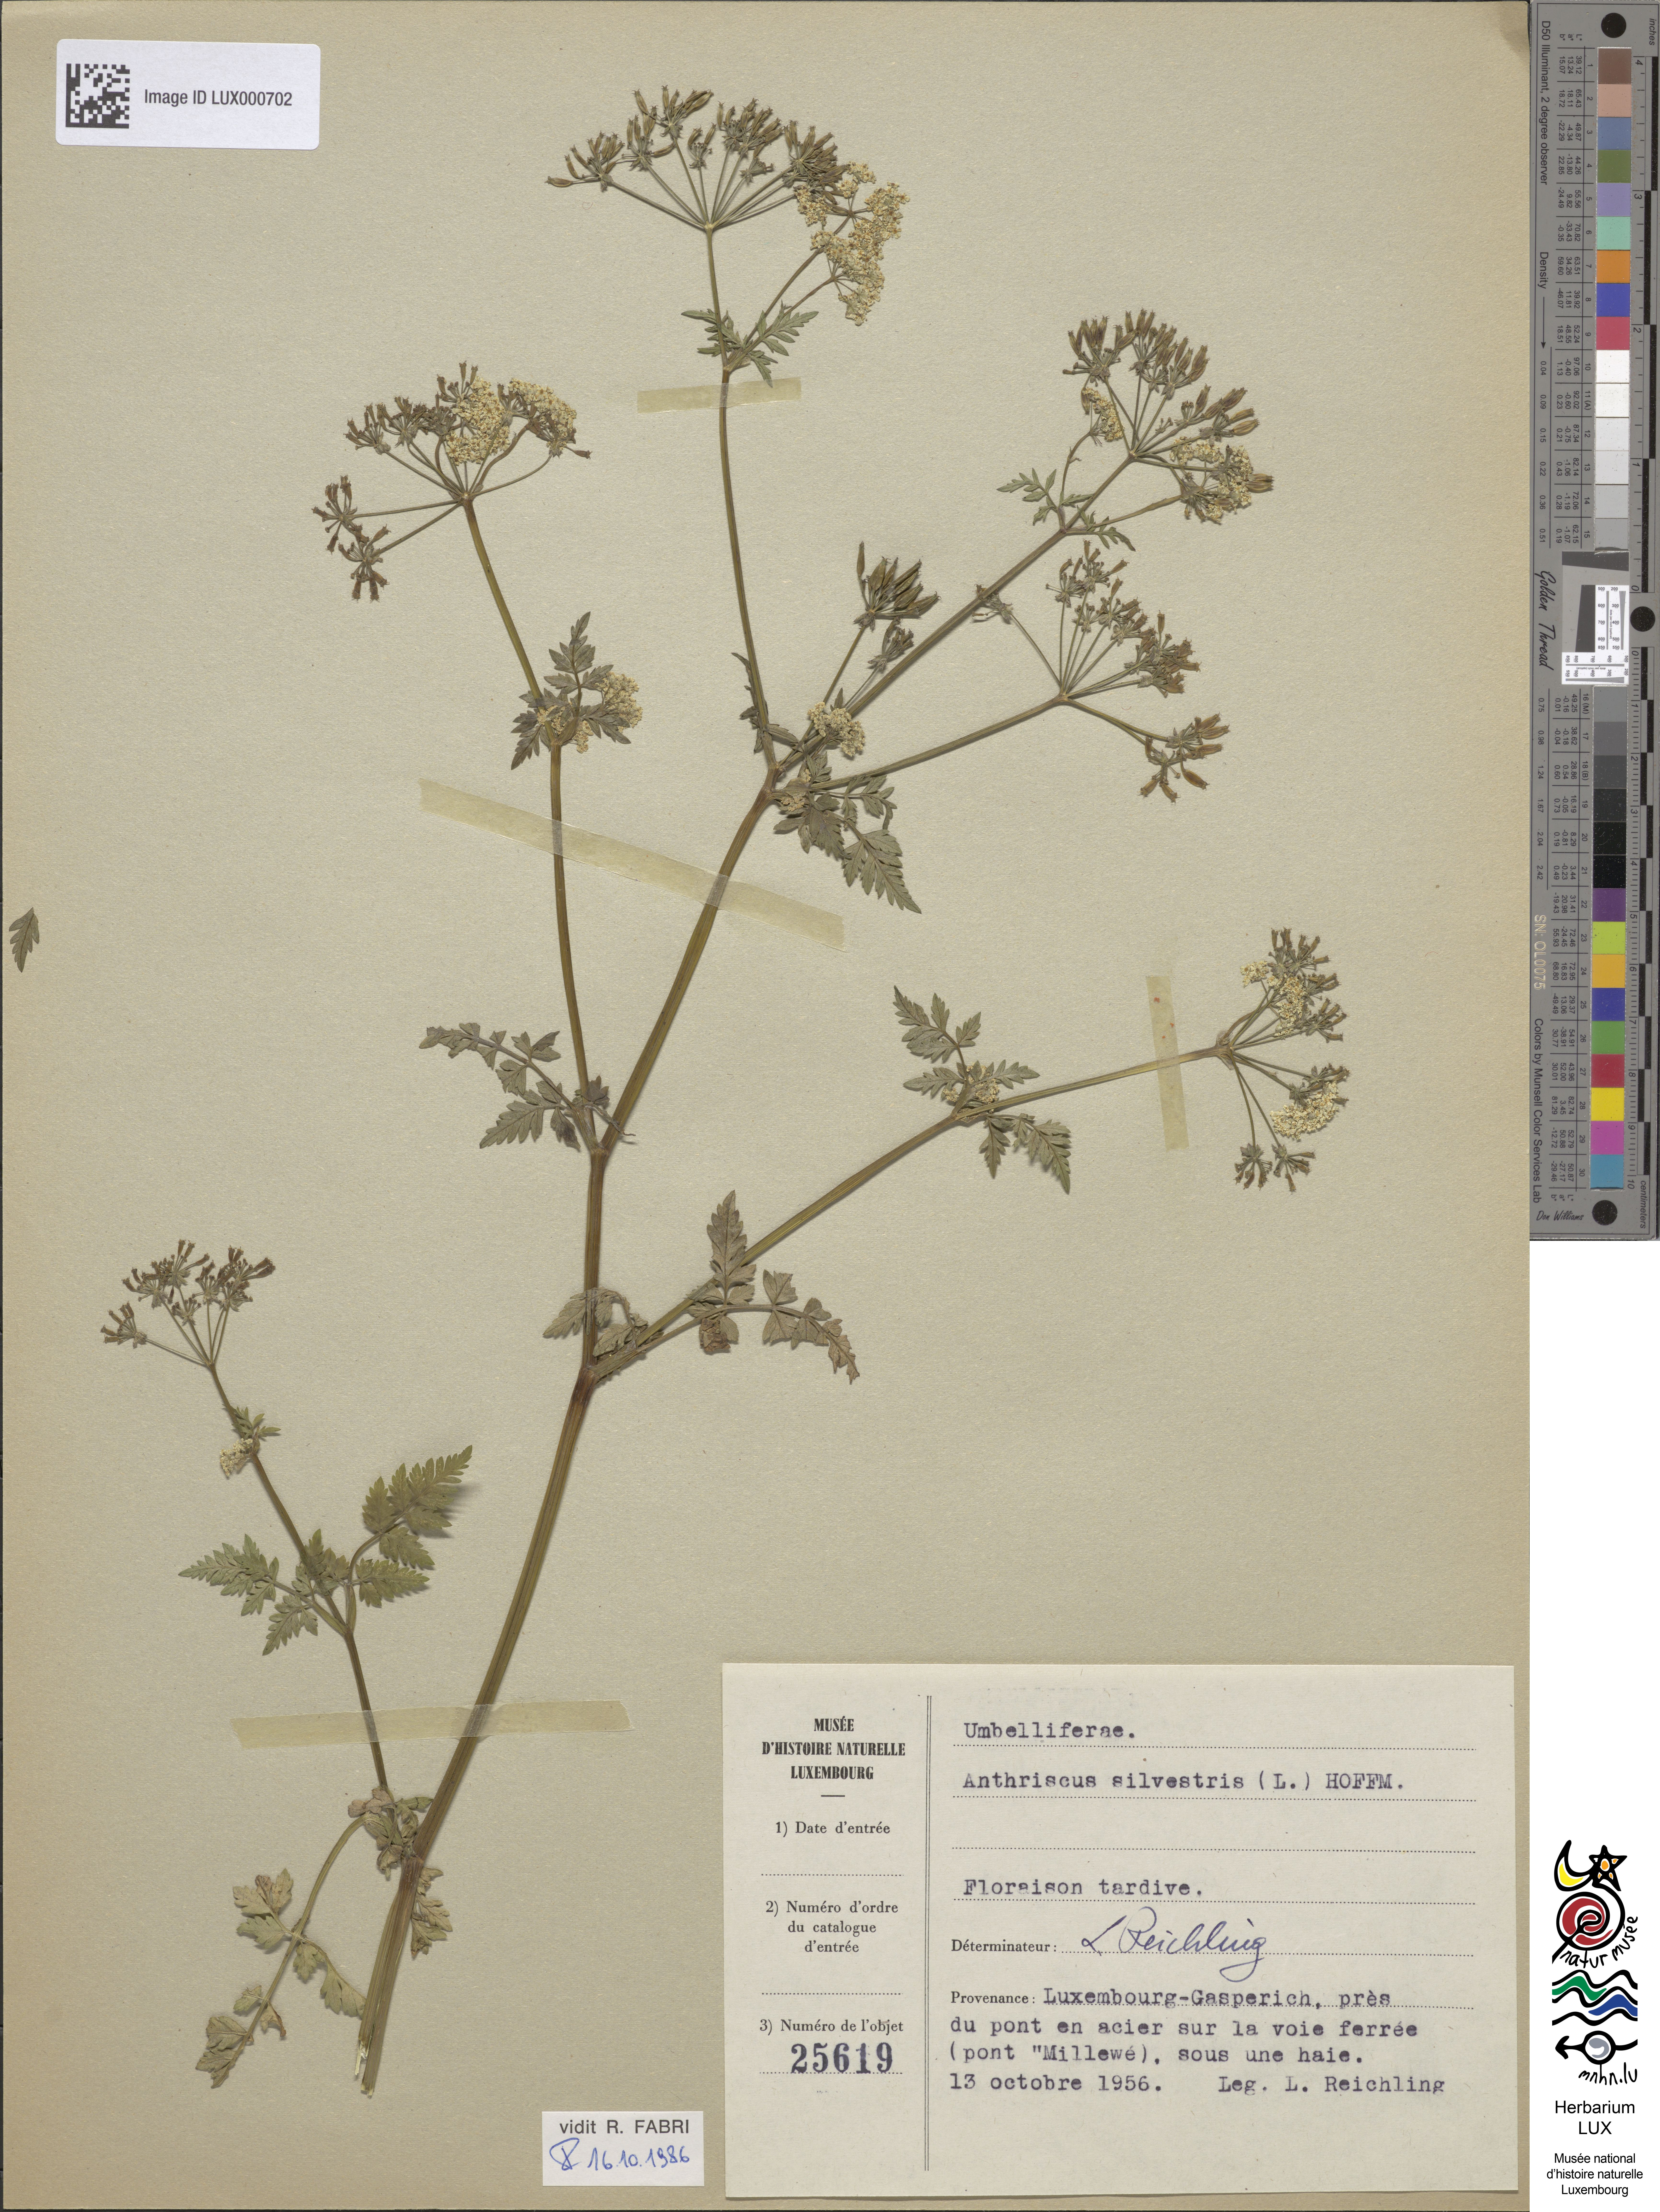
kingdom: Plantae
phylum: Tracheophyta
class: Magnoliopsida
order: Apiales
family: Apiaceae
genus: Anthriscus
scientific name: Anthriscus sylvestris
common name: Cow parsley
